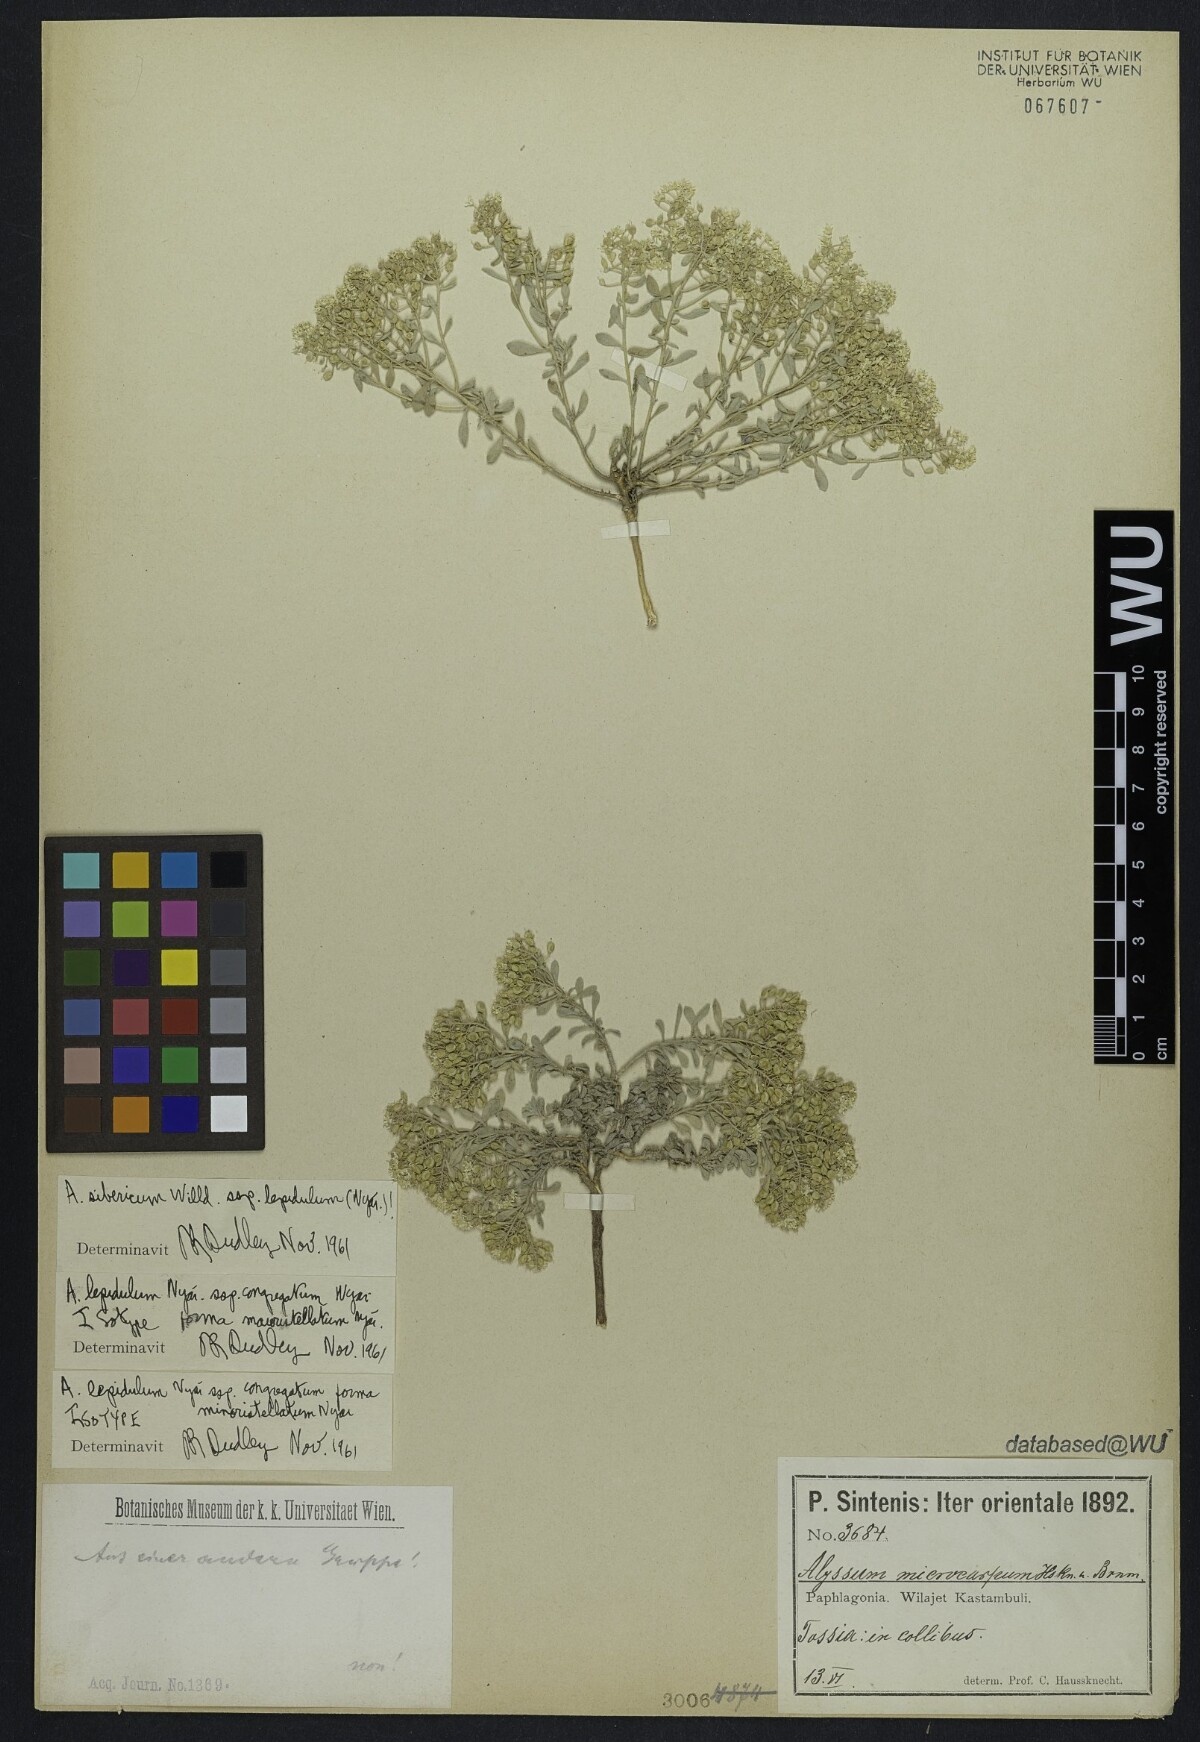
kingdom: Plantae
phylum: Tracheophyta
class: Magnoliopsida
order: Brassicales
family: Brassicaceae
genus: Odontarrhena
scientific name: Odontarrhena sibirica
